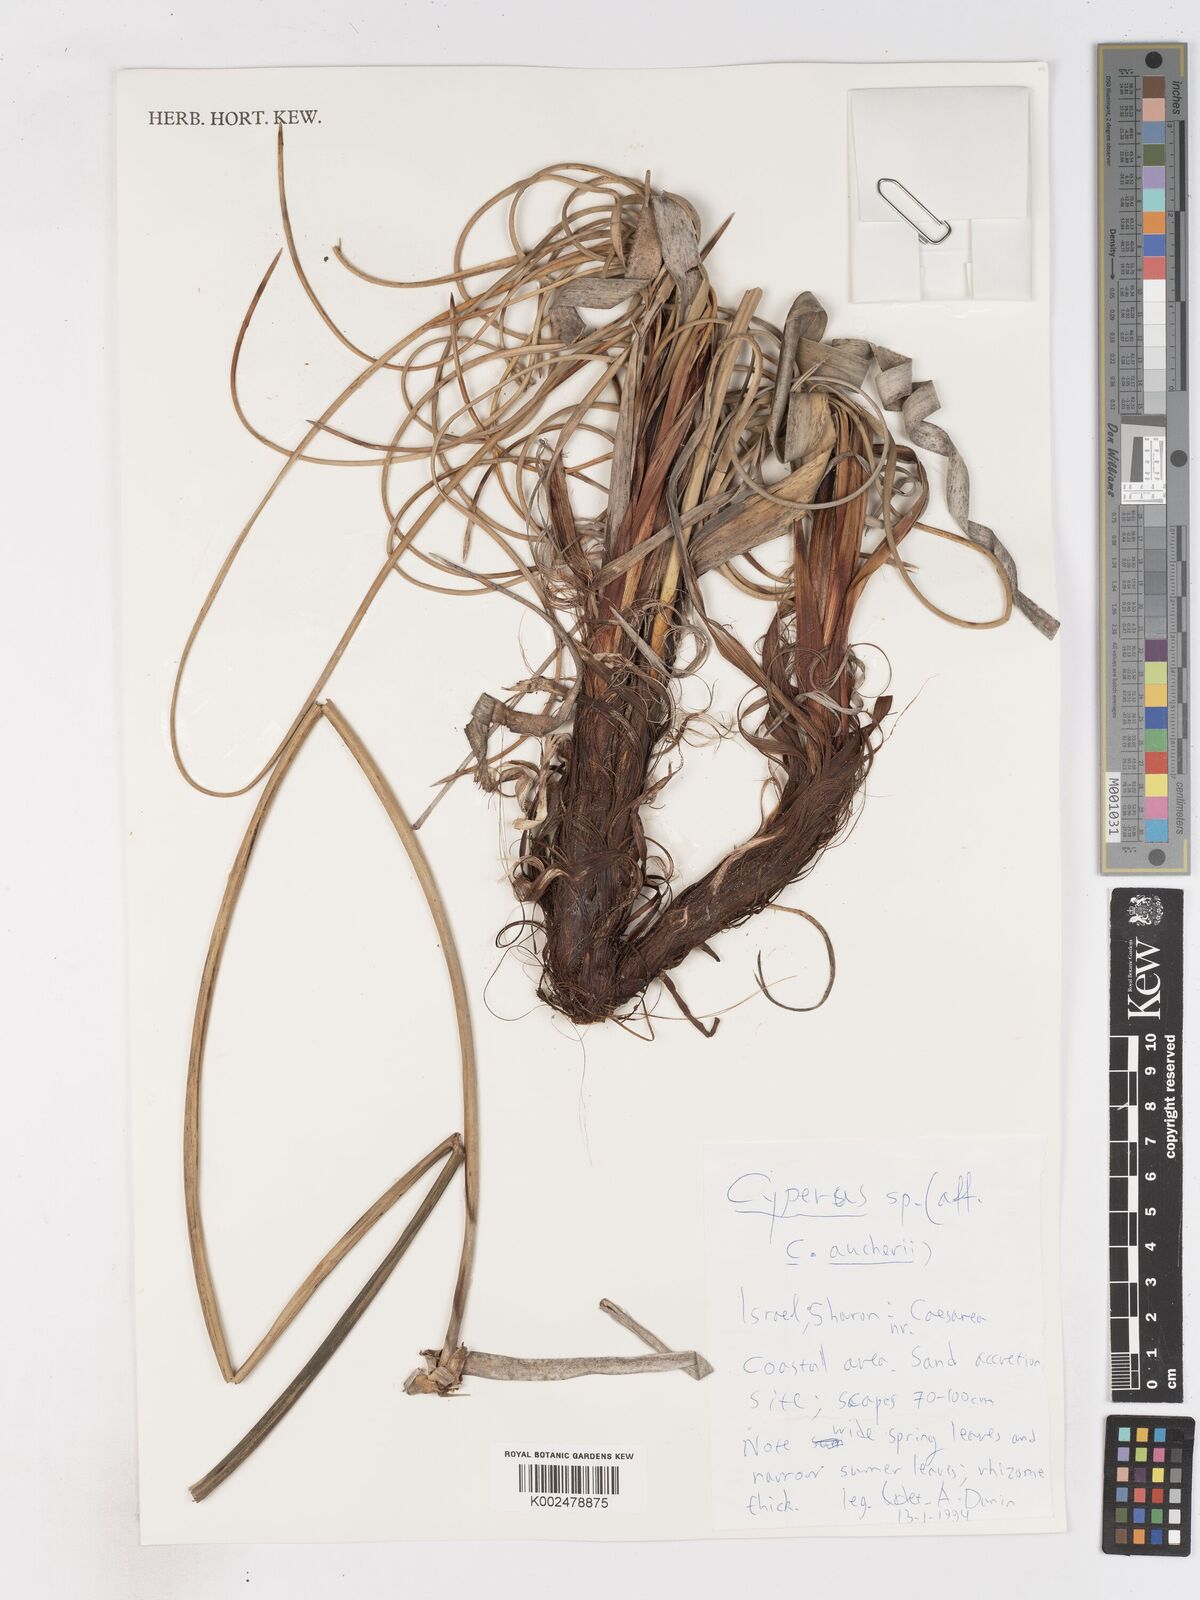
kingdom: Plantae
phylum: Tracheophyta
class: Liliopsida
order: Poales
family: Cyperaceae
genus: Cyperus
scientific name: Cyperus aucheri
